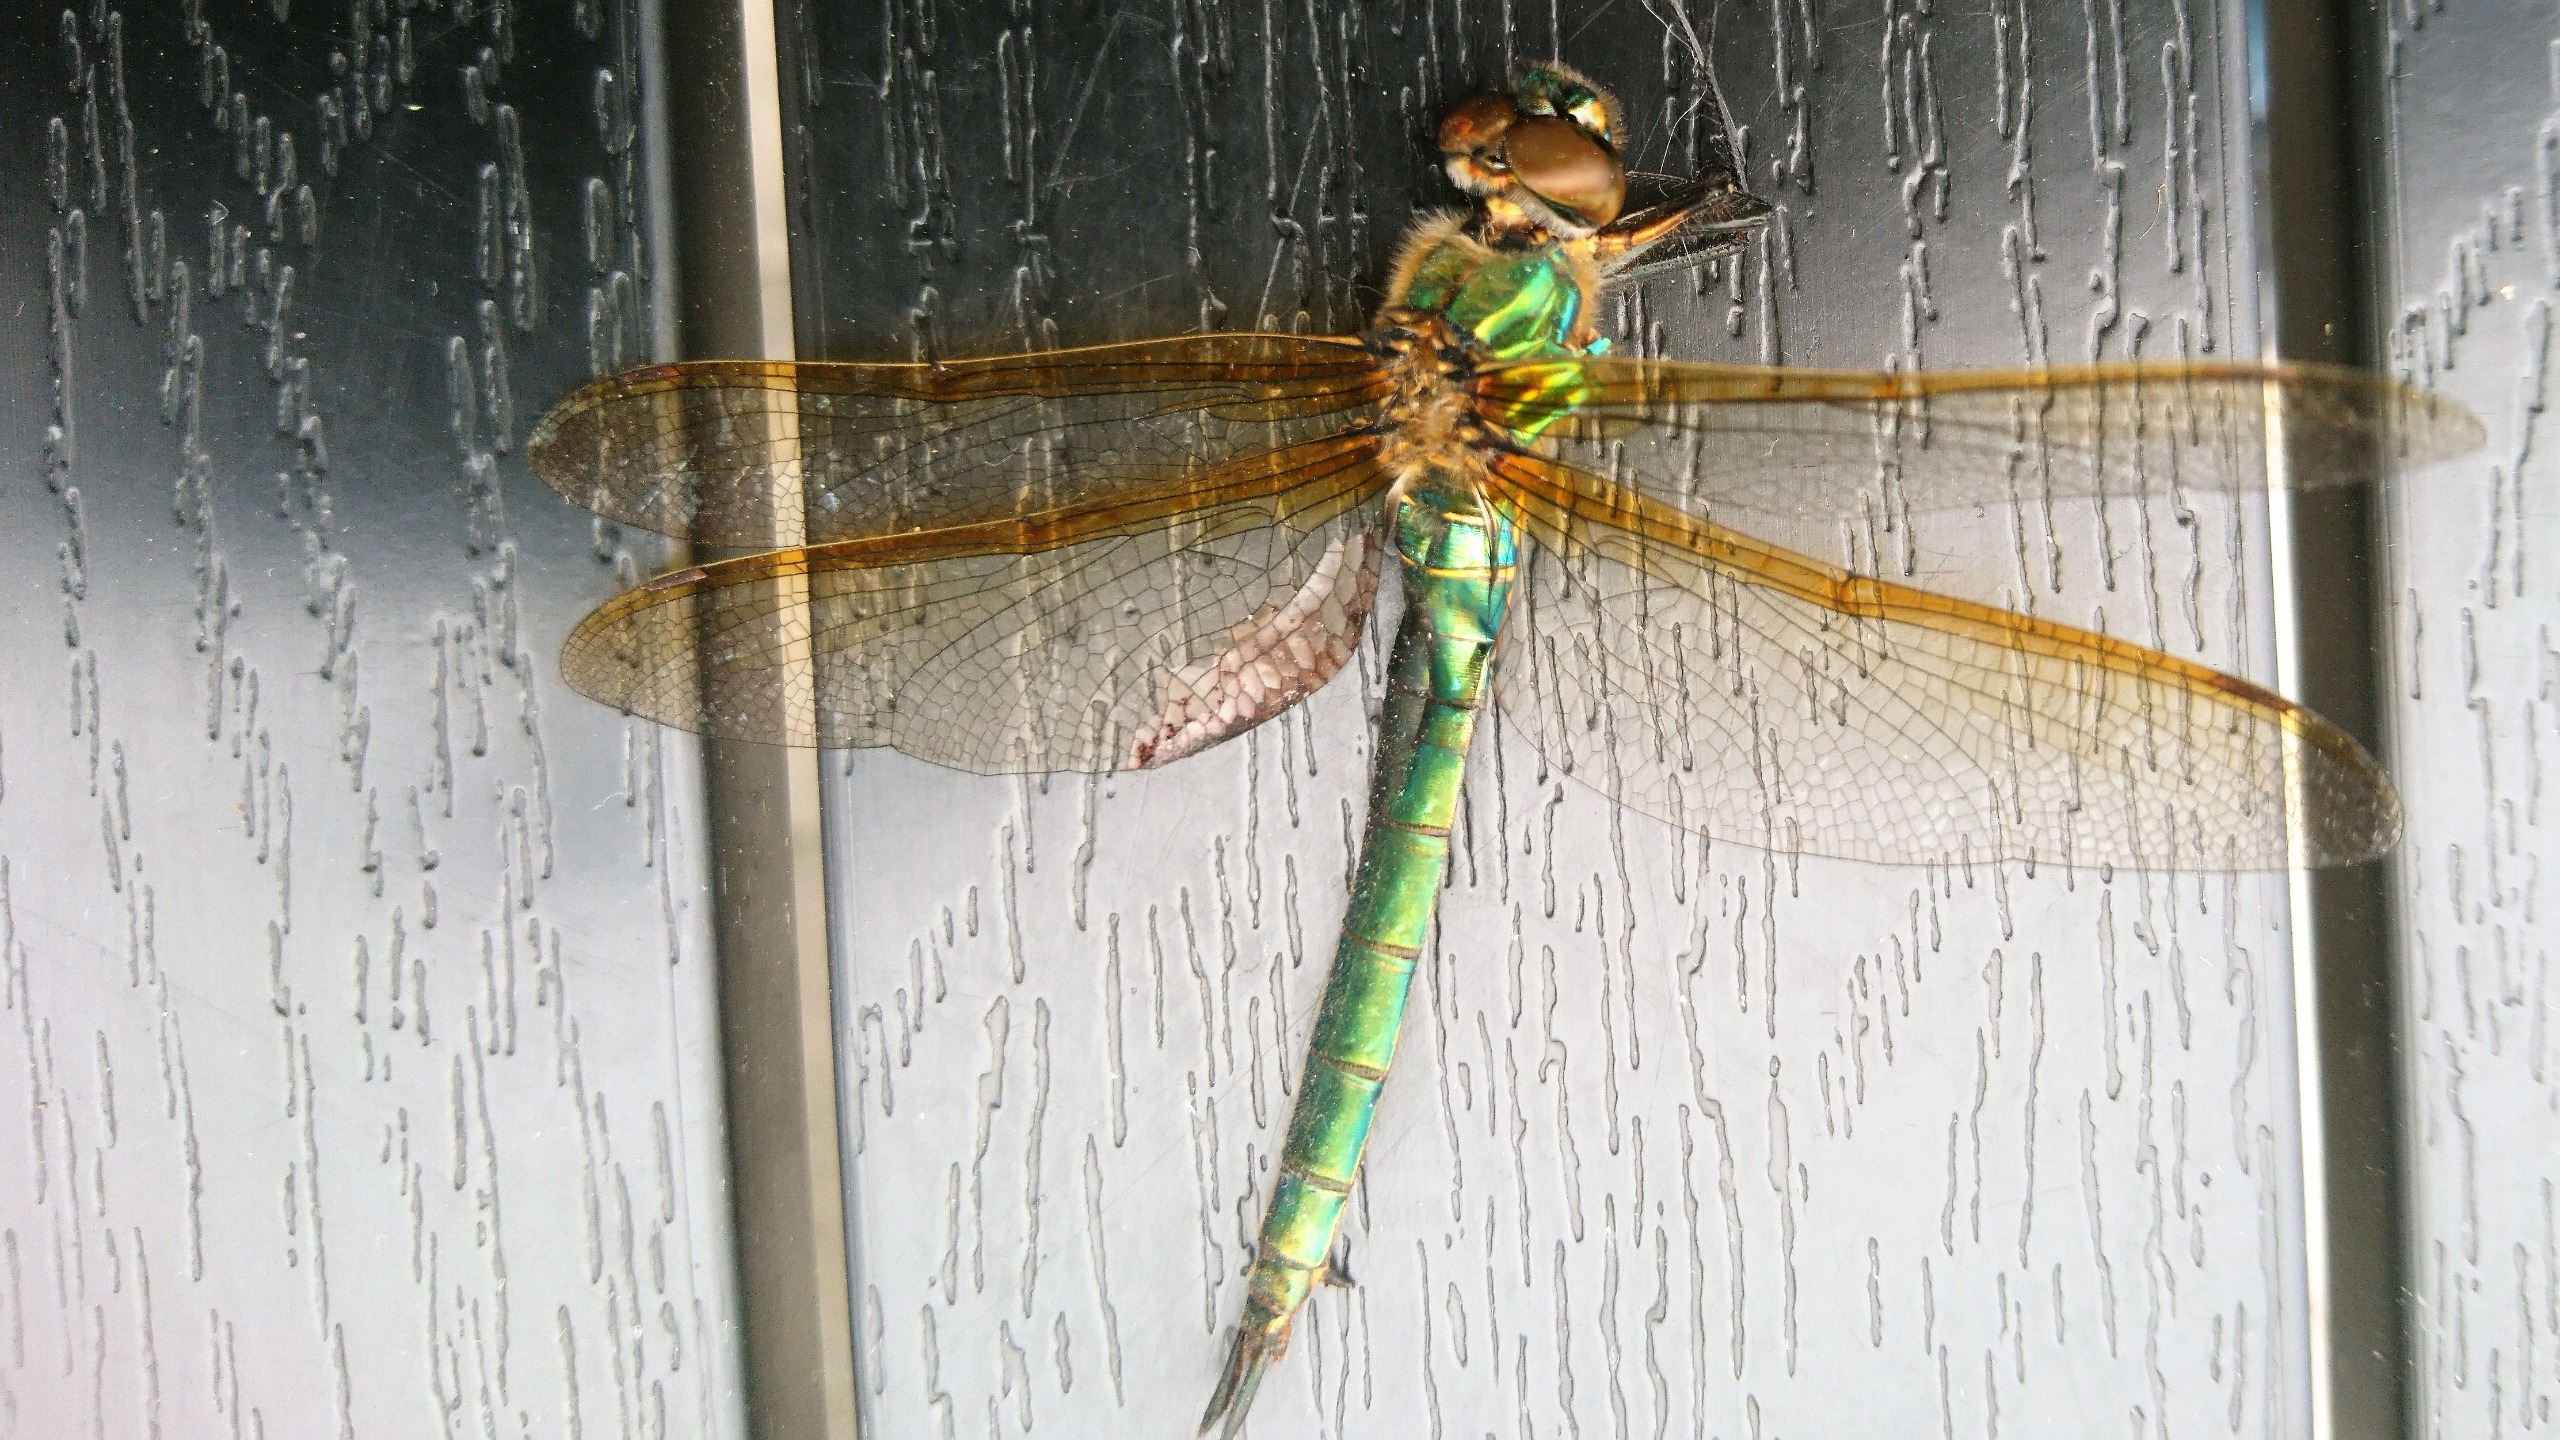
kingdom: Animalia
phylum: Arthropoda
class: Insecta
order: Odonata
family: Corduliidae
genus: Somatochlora
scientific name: Somatochlora metallica
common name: Glinsende smaragdlibel
